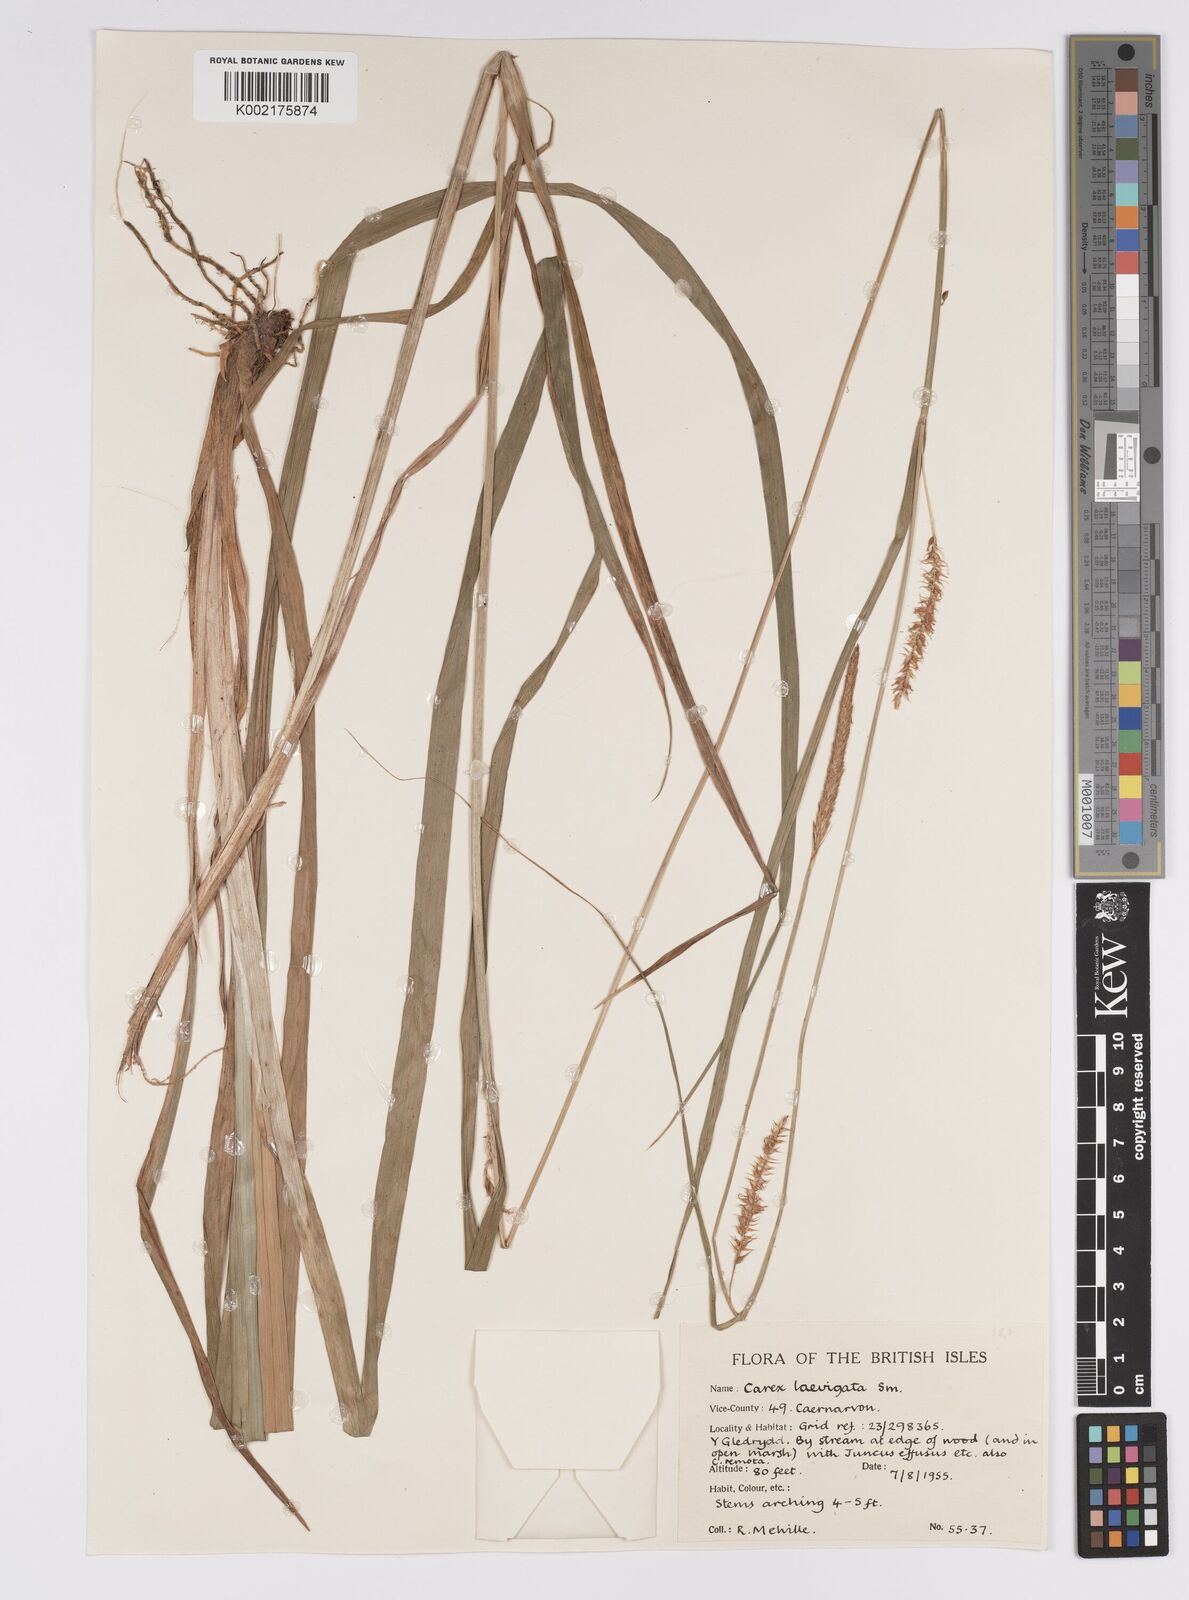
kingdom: Plantae
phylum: Tracheophyta
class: Liliopsida
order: Poales
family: Cyperaceae
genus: Carex
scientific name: Carex laevigata
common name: Smooth-stalked sedge
